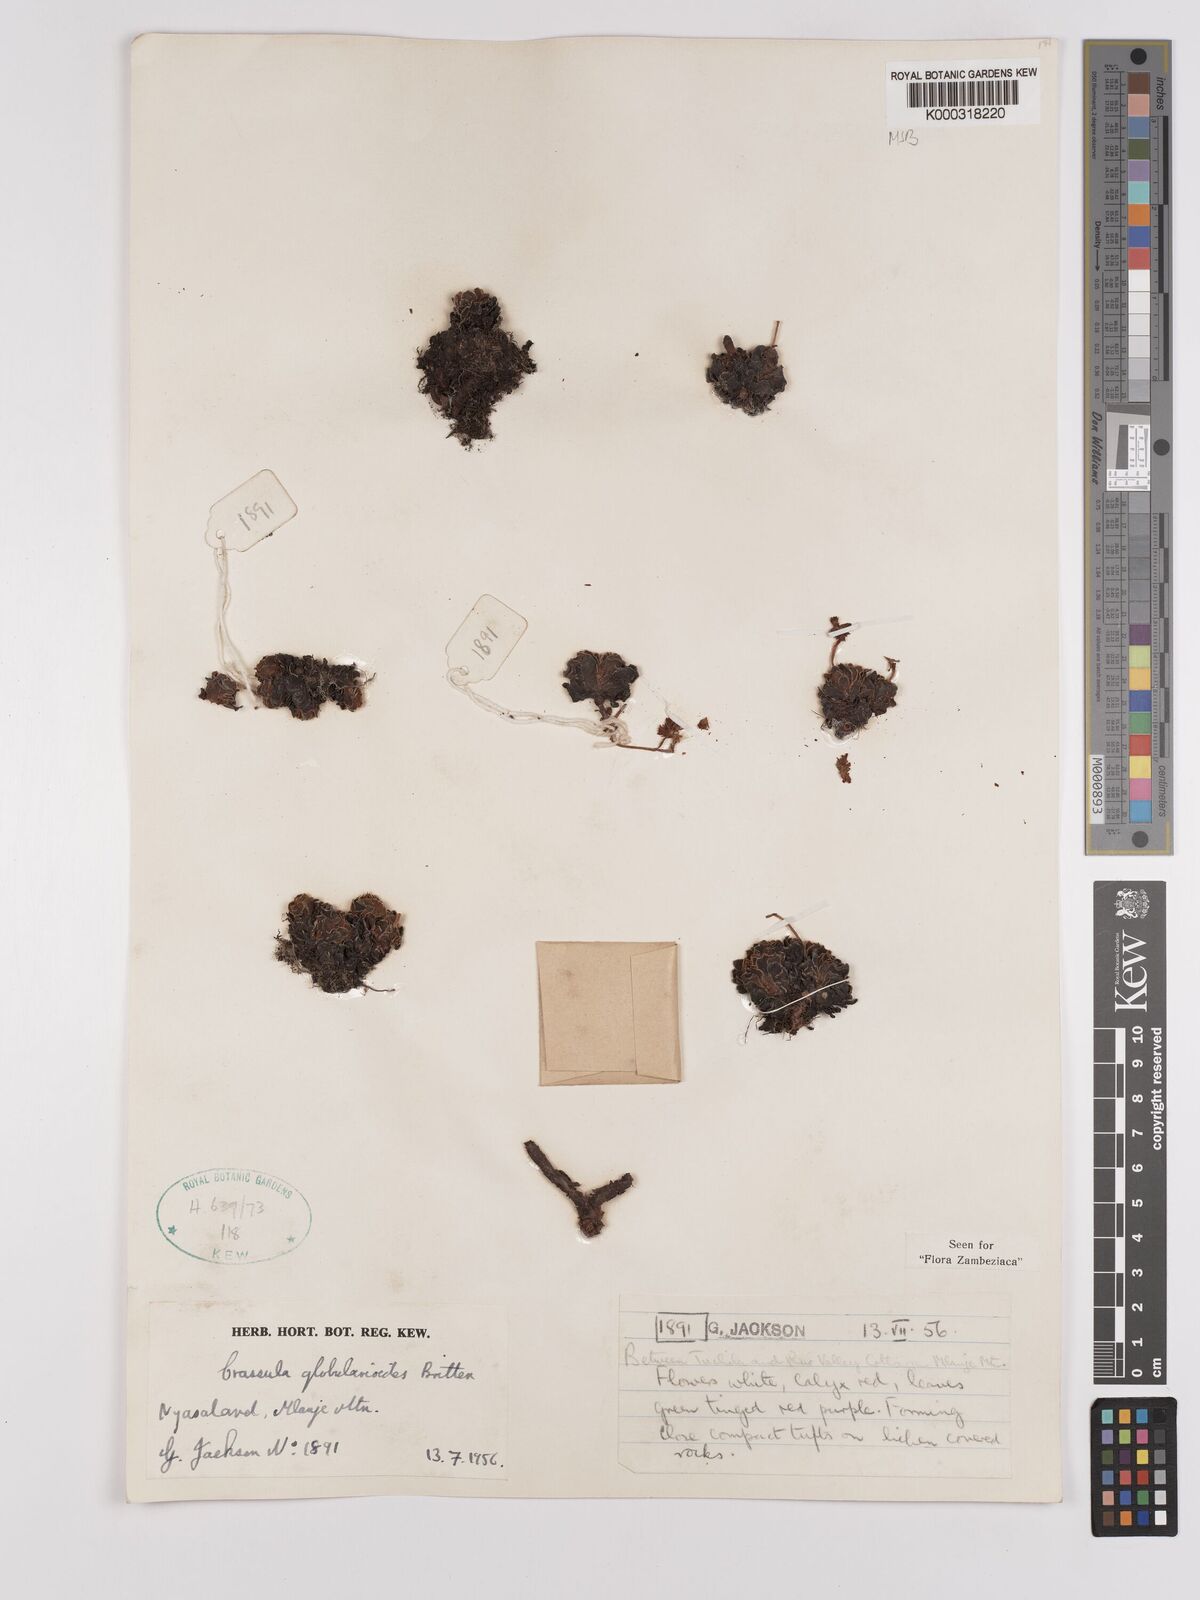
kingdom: Plantae
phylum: Tracheophyta
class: Magnoliopsida
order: Saxifragales
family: Crassulaceae
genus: Crassula
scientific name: Crassula globularioides
